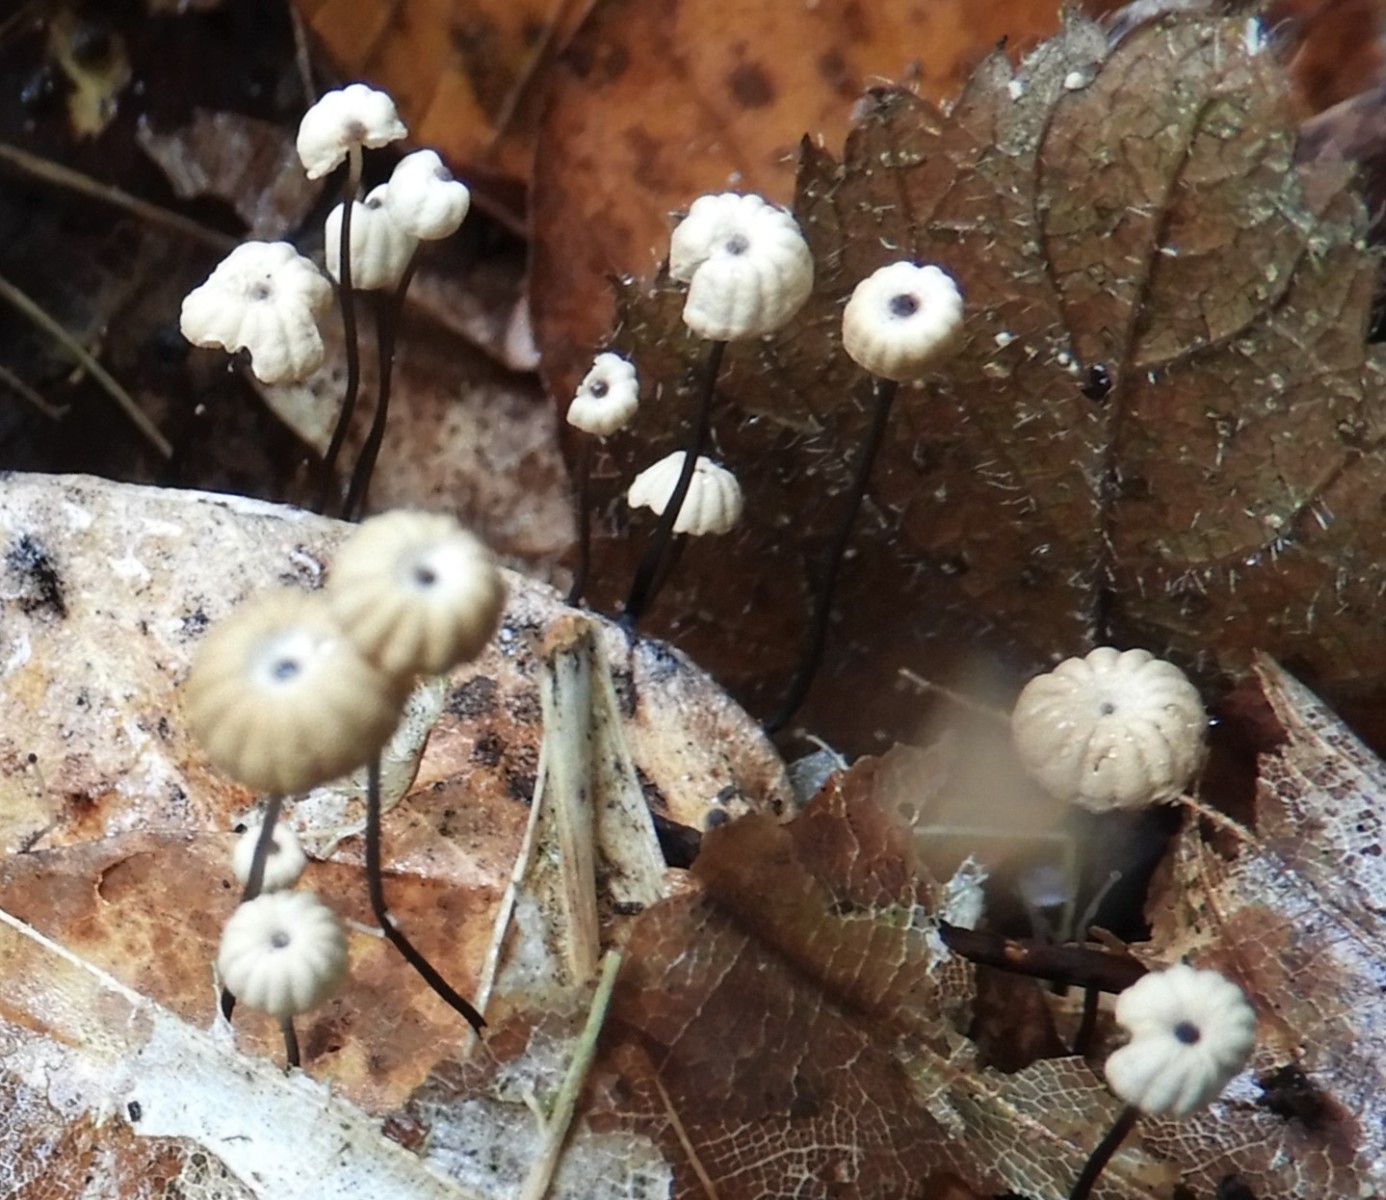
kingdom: Fungi
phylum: Basidiomycota
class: Agaricomycetes
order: Agaricales
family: Marasmiaceae
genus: Marasmius
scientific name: Marasmius bulliardii
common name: furet bruskhat
